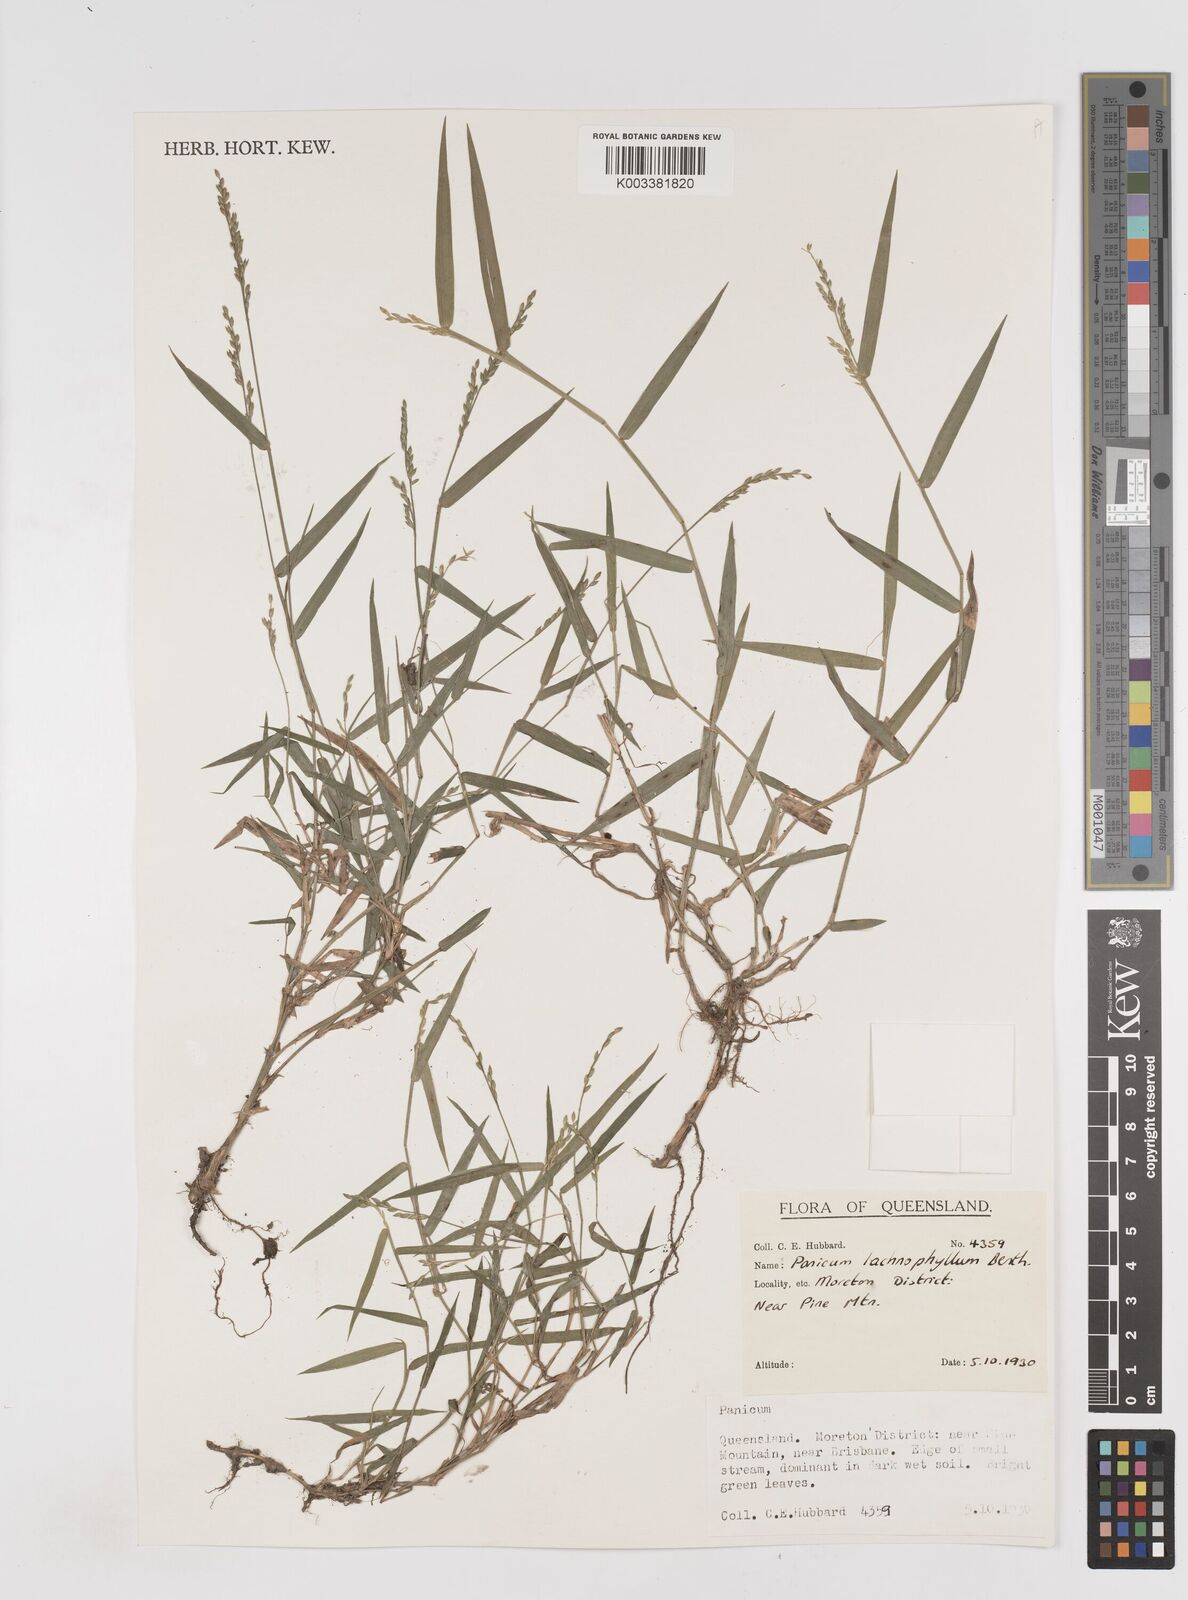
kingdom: Plantae
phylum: Tracheophyta
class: Liliopsida
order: Poales
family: Poaceae
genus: Entolasia
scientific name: Entolasia
